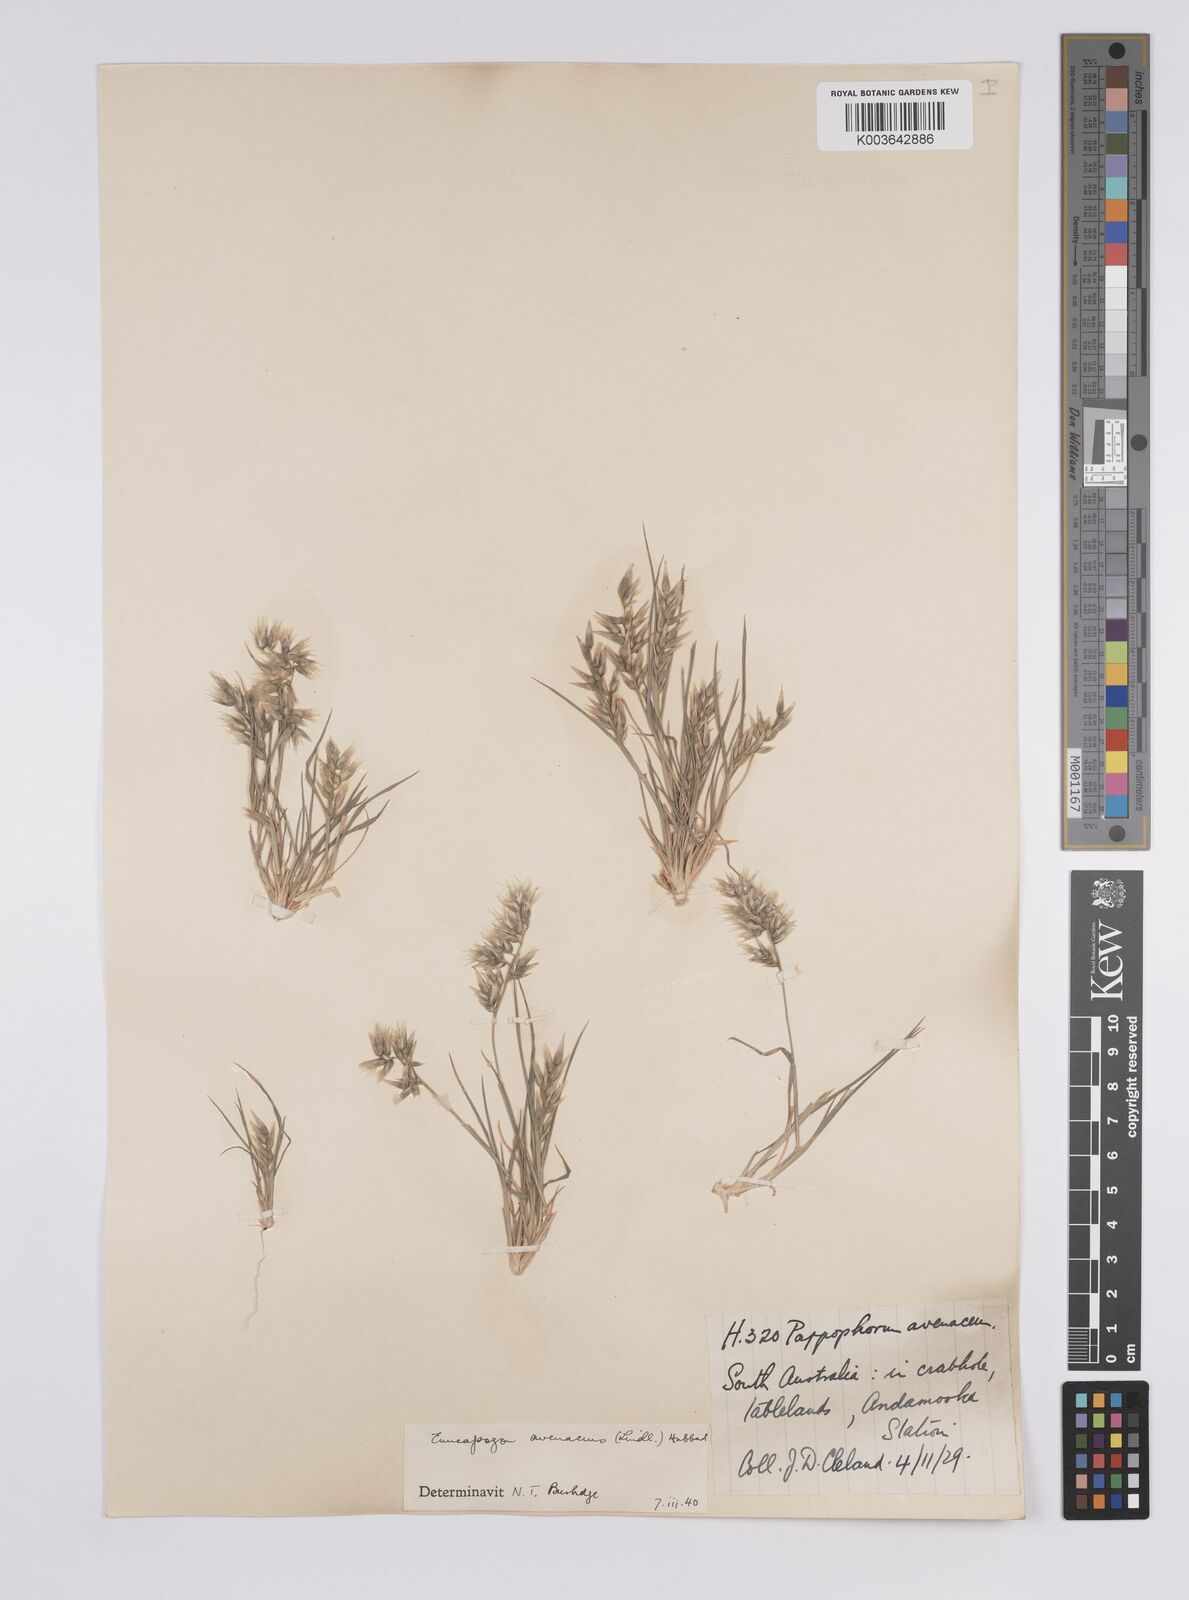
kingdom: Plantae
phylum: Tracheophyta
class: Liliopsida
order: Poales
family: Poaceae
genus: Enneapogon
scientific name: Enneapogon avenaceus
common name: Hairy oat grass
